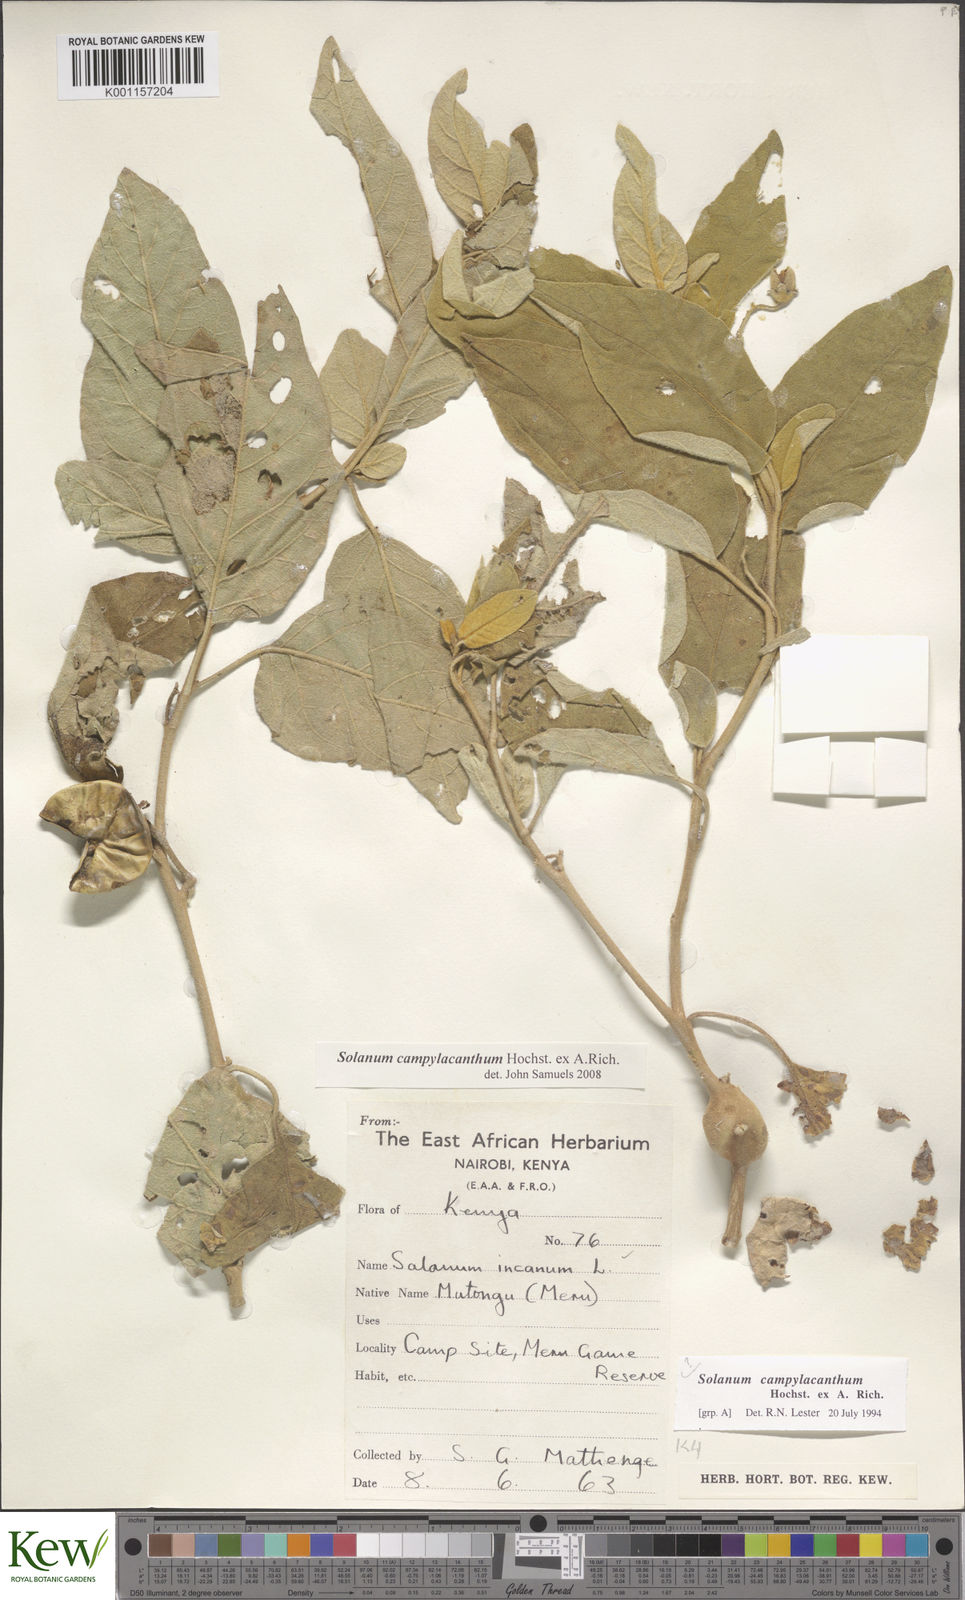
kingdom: Plantae
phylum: Tracheophyta
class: Magnoliopsida
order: Solanales
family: Solanaceae
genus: Solanum
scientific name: Solanum campylacanthum
